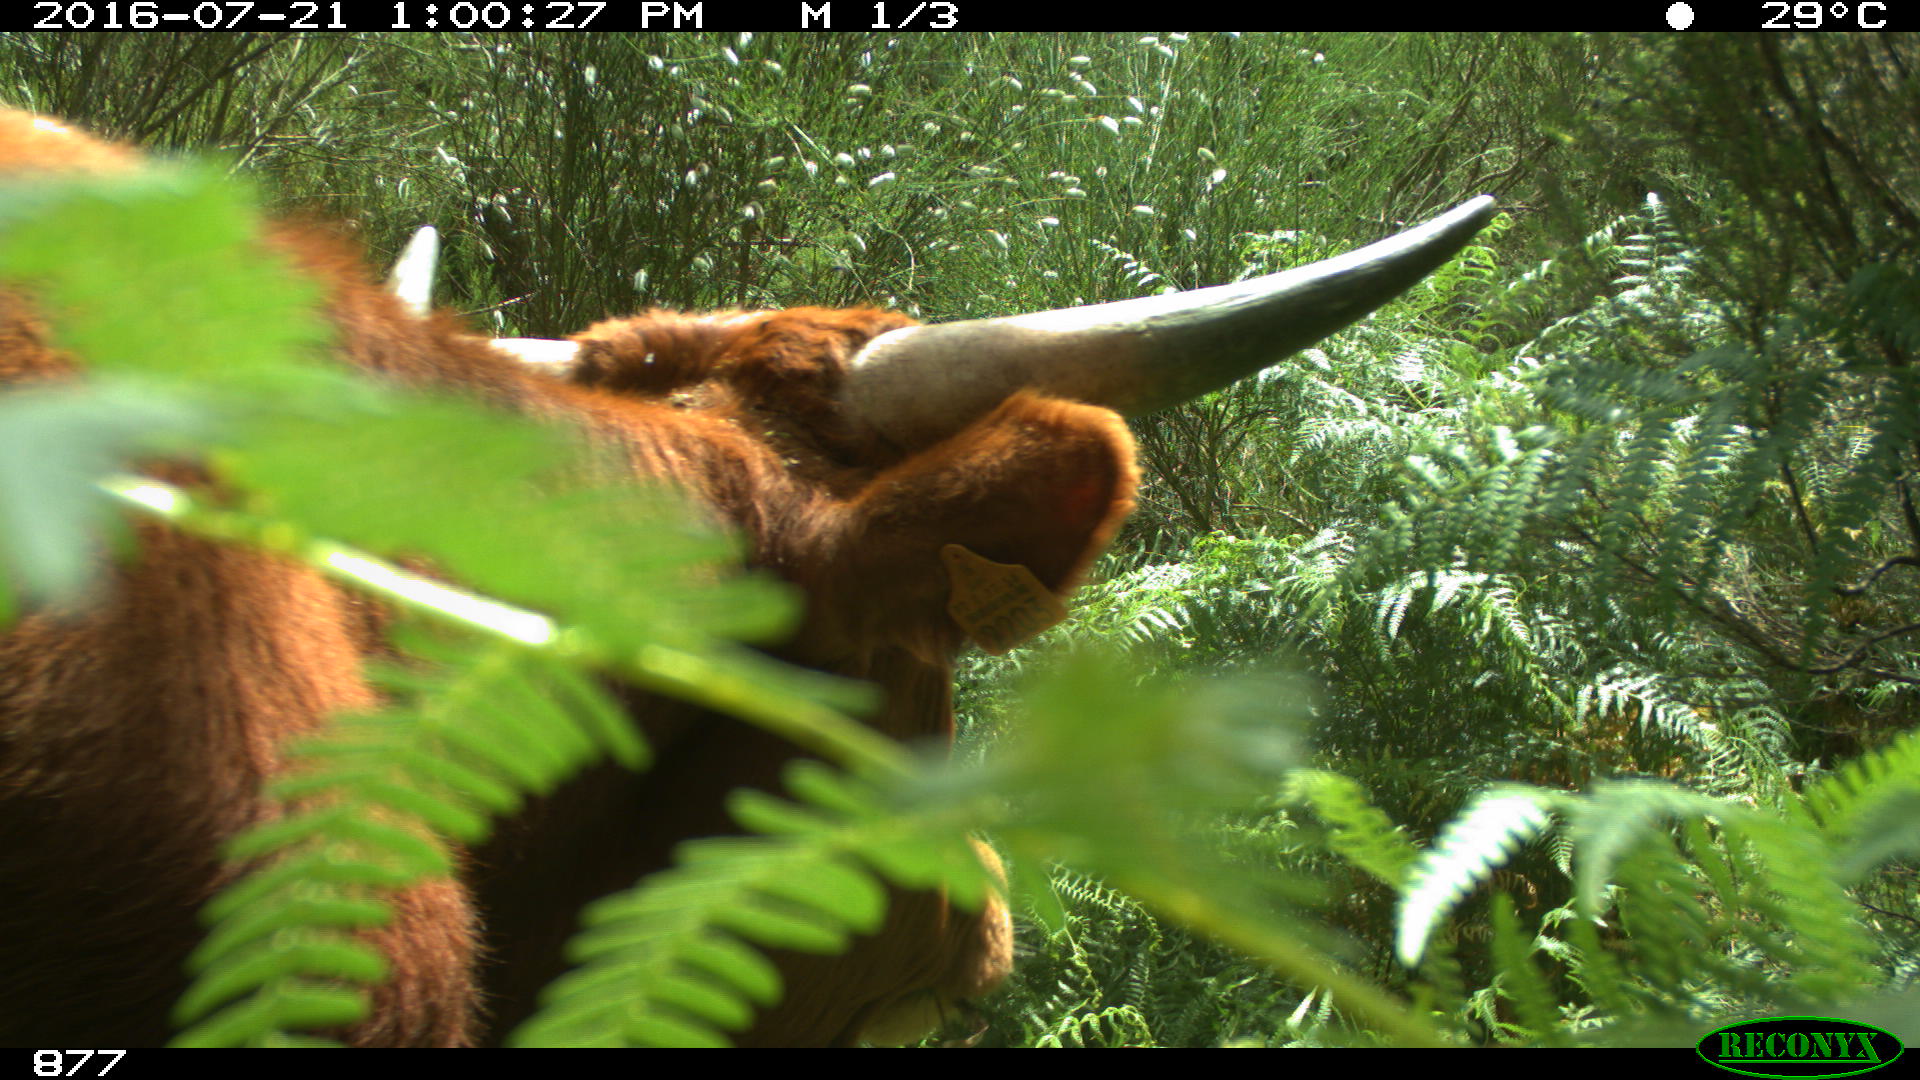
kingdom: Animalia
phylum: Chordata
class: Mammalia
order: Artiodactyla
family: Bovidae
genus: Bos
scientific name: Bos taurus
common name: Domesticated cattle
